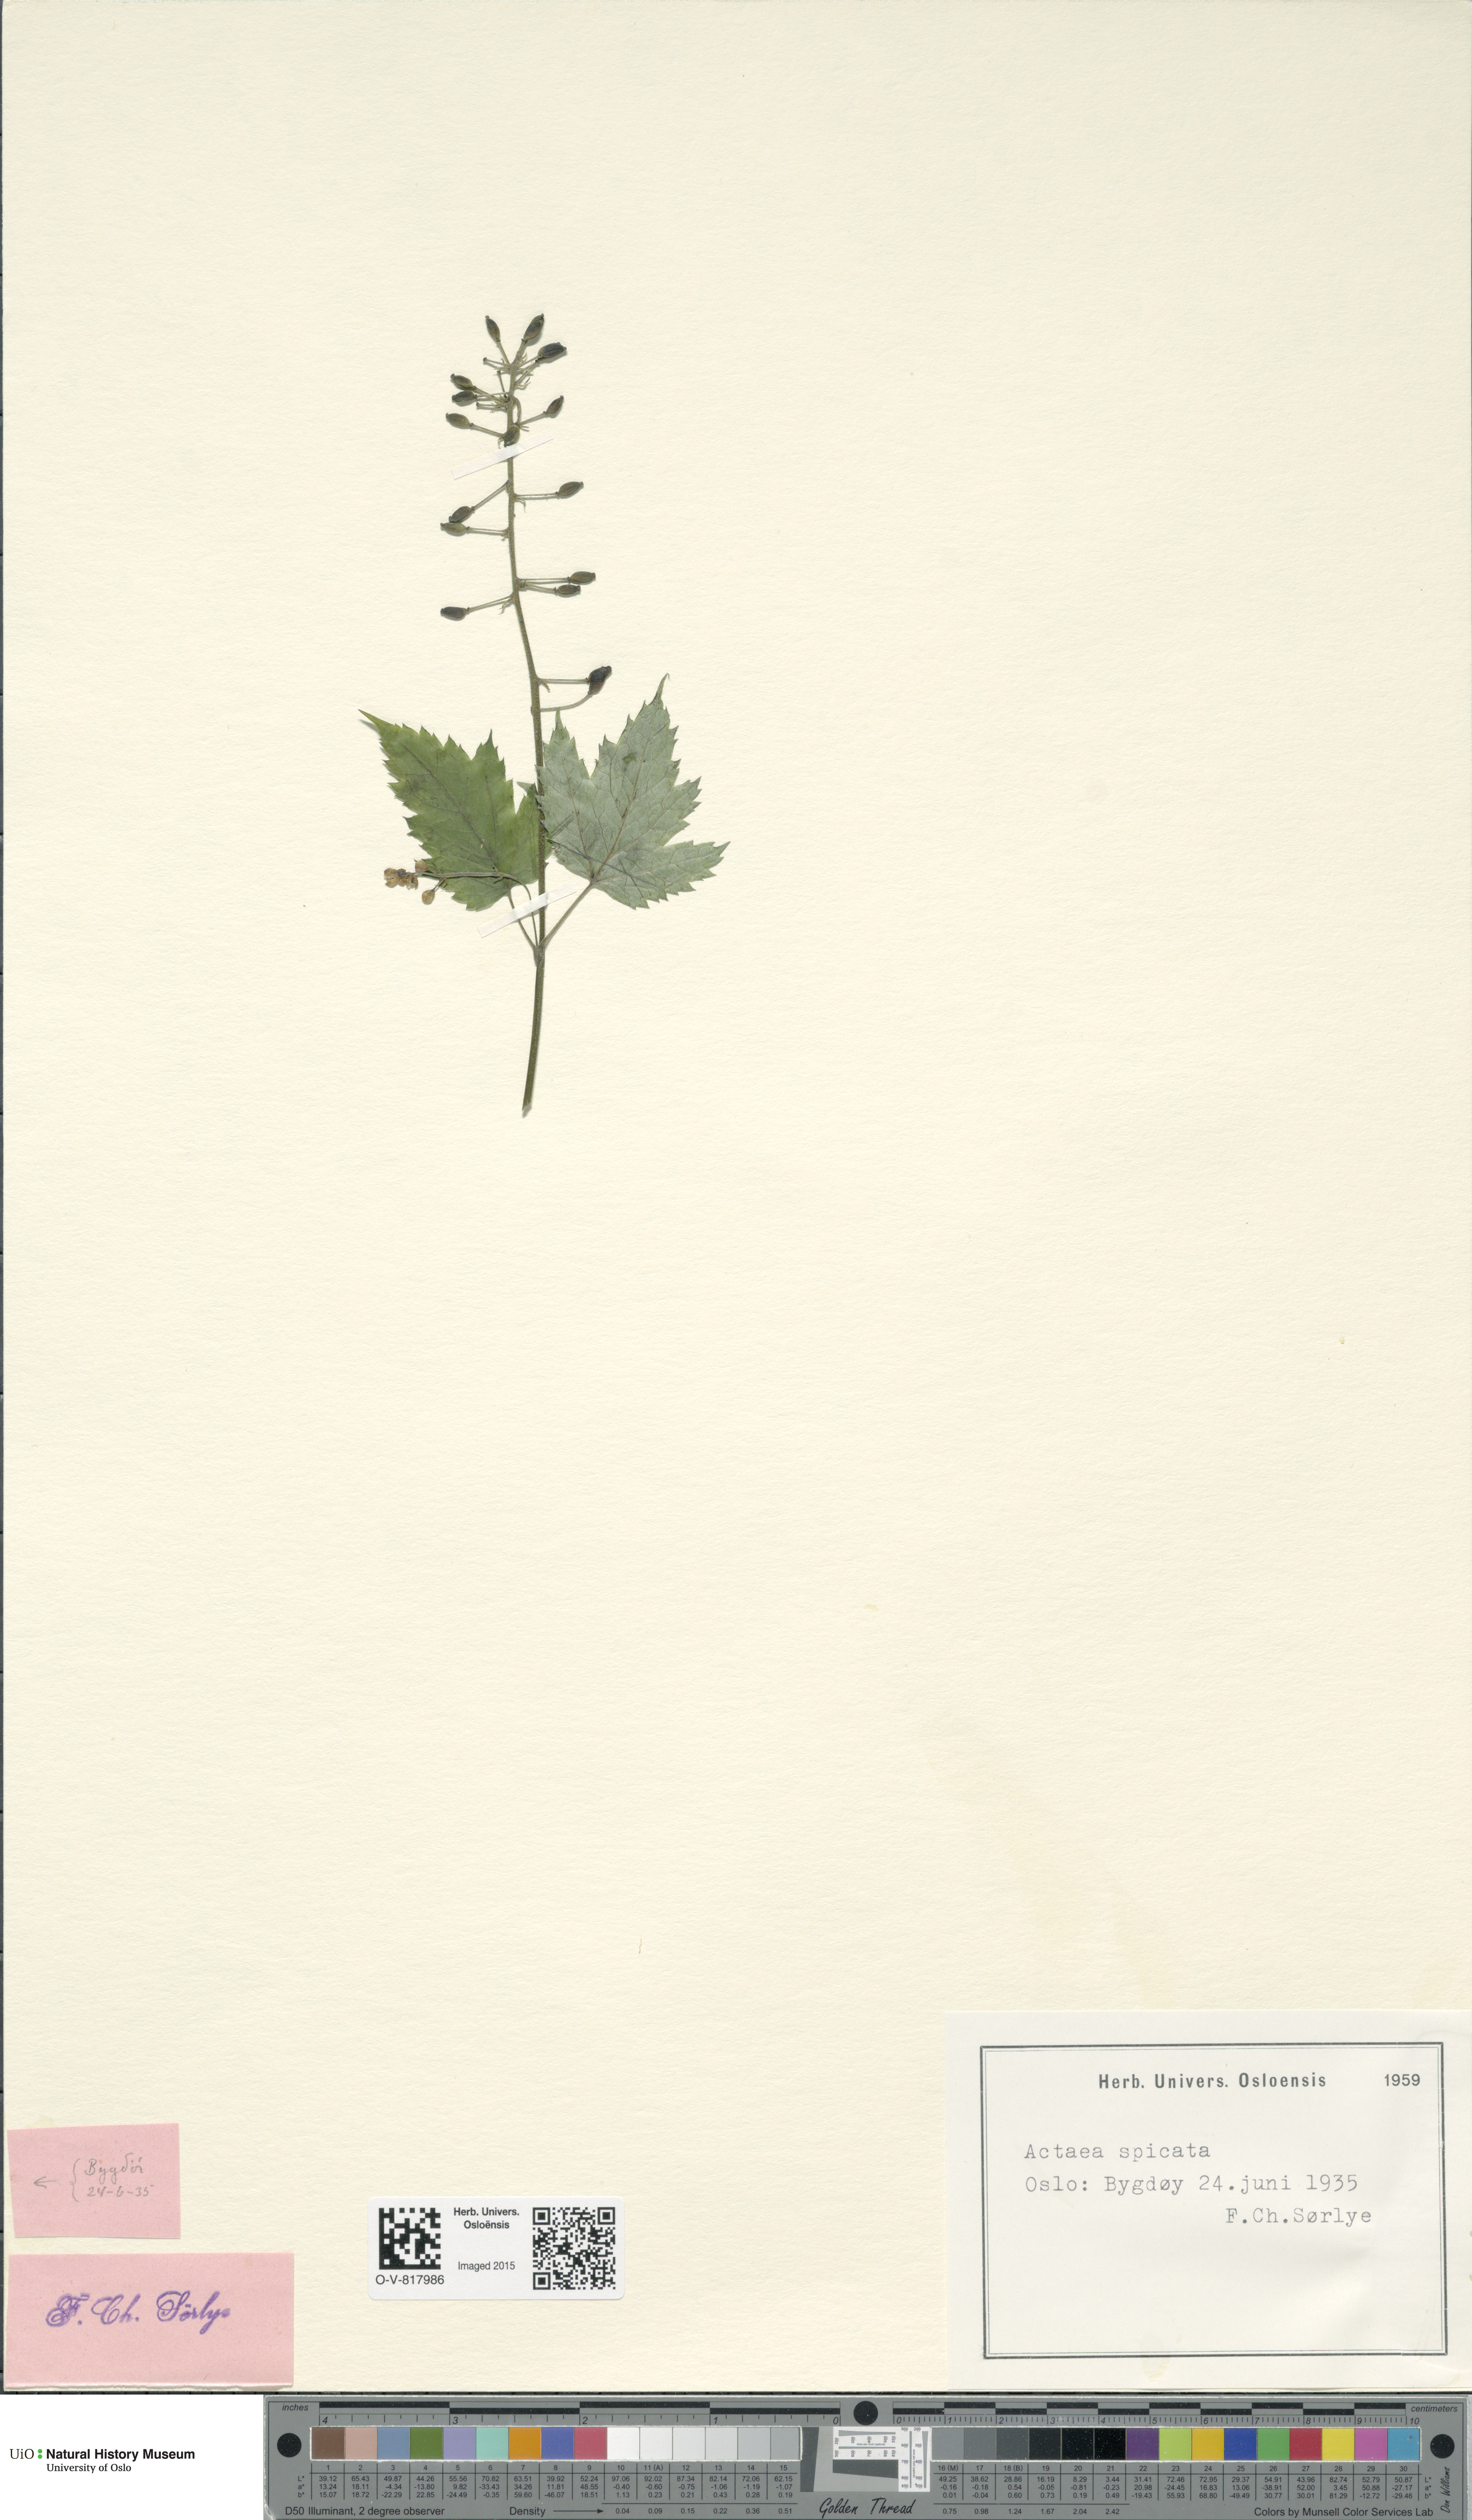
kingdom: Plantae
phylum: Tracheophyta
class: Magnoliopsida
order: Ranunculales
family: Ranunculaceae
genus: Actaea
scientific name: Actaea spicata
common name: Baneberry
